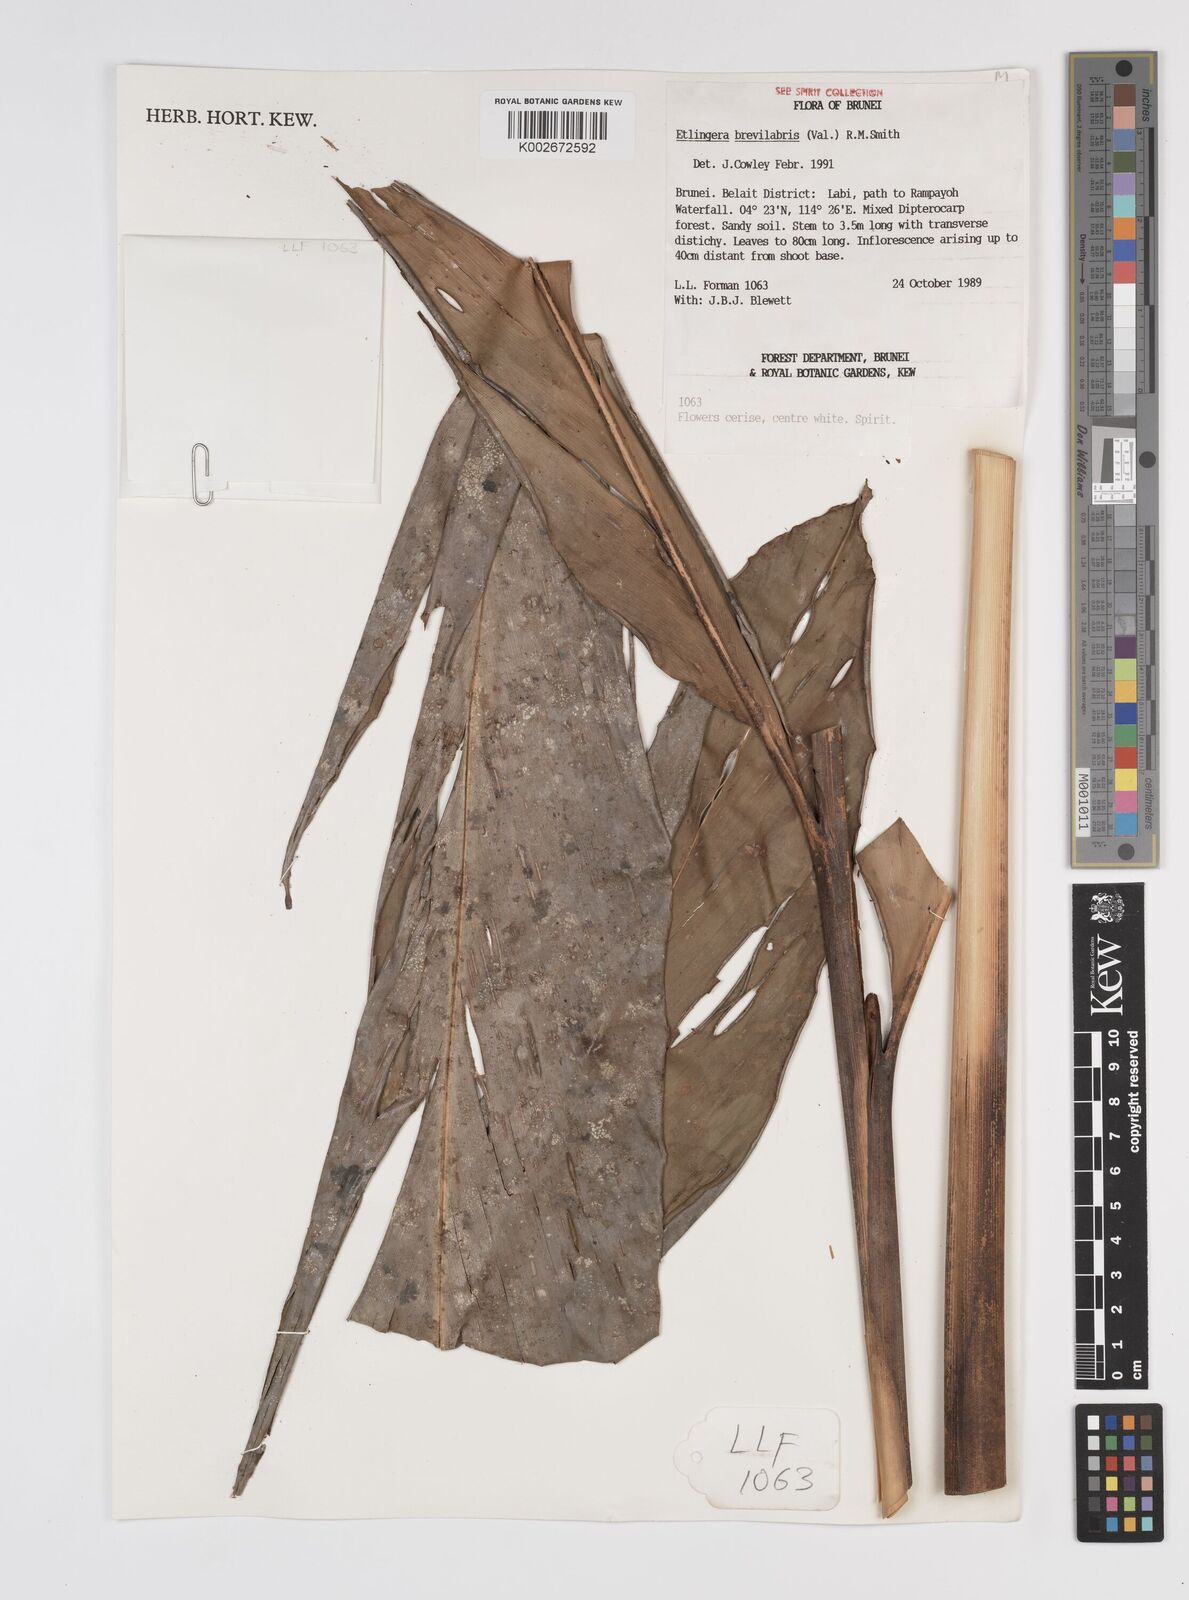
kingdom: Plantae
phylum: Tracheophyta
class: Liliopsida
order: Zingiberales
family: Zingiberaceae
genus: Etlingera
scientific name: Etlingera
